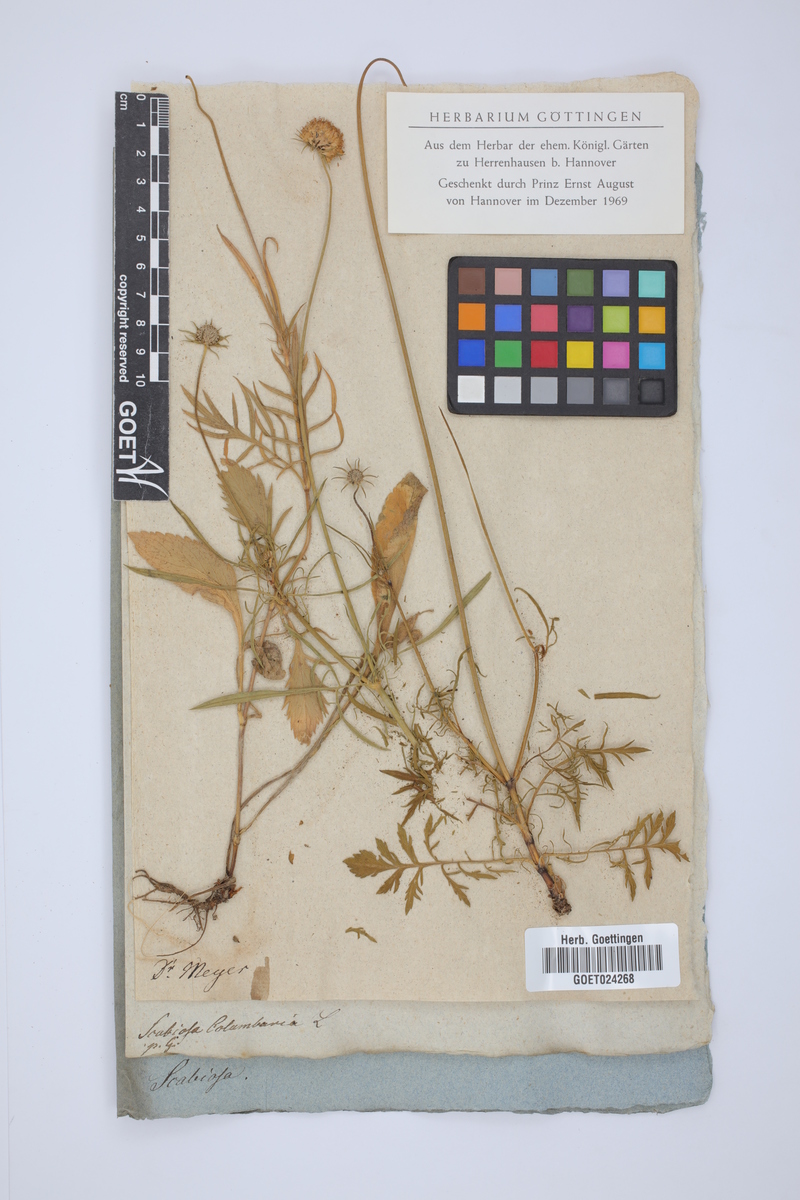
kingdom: Plantae
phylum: Tracheophyta
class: Magnoliopsida
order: Dipsacales
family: Caprifoliaceae
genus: Scabiosa
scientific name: Scabiosa columbaria
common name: Small scabious
